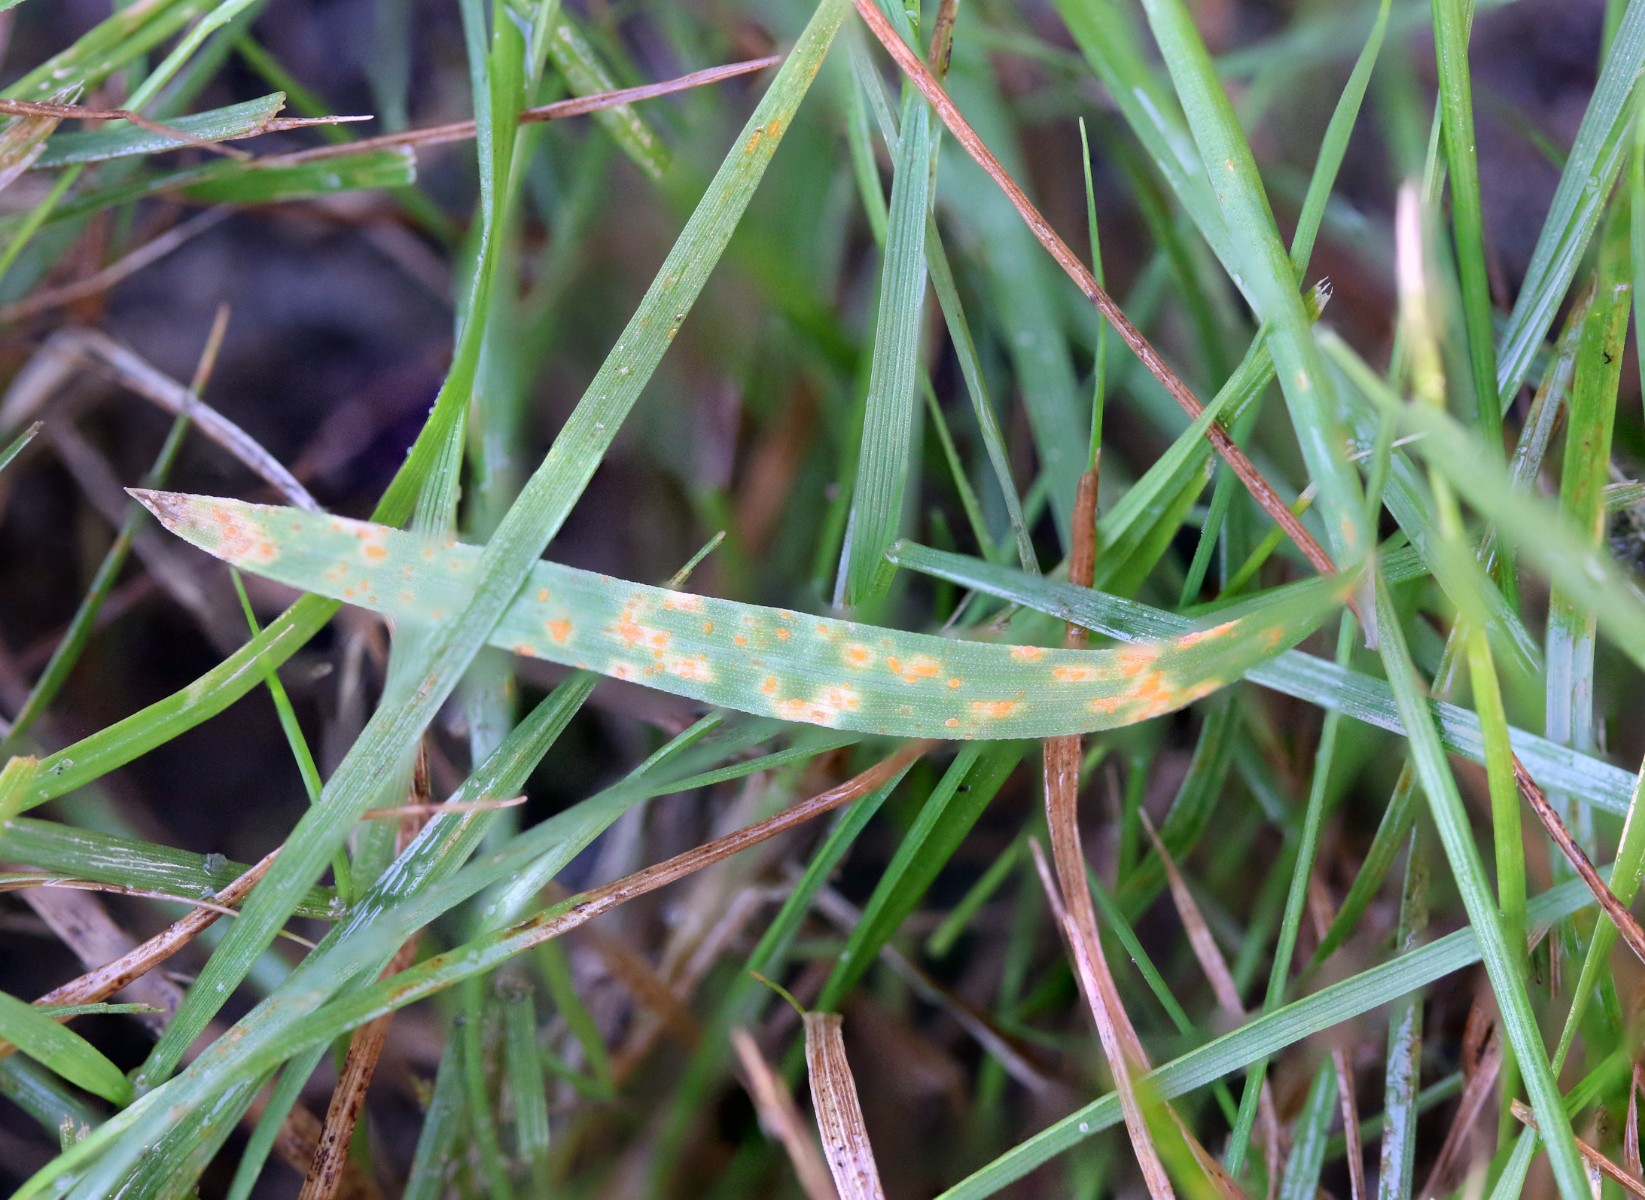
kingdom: Fungi
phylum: Basidiomycota
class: Pucciniomycetes
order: Pucciniales
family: Pucciniaceae
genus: Puccinia
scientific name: Puccinia brachypodii
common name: Rust fungus
